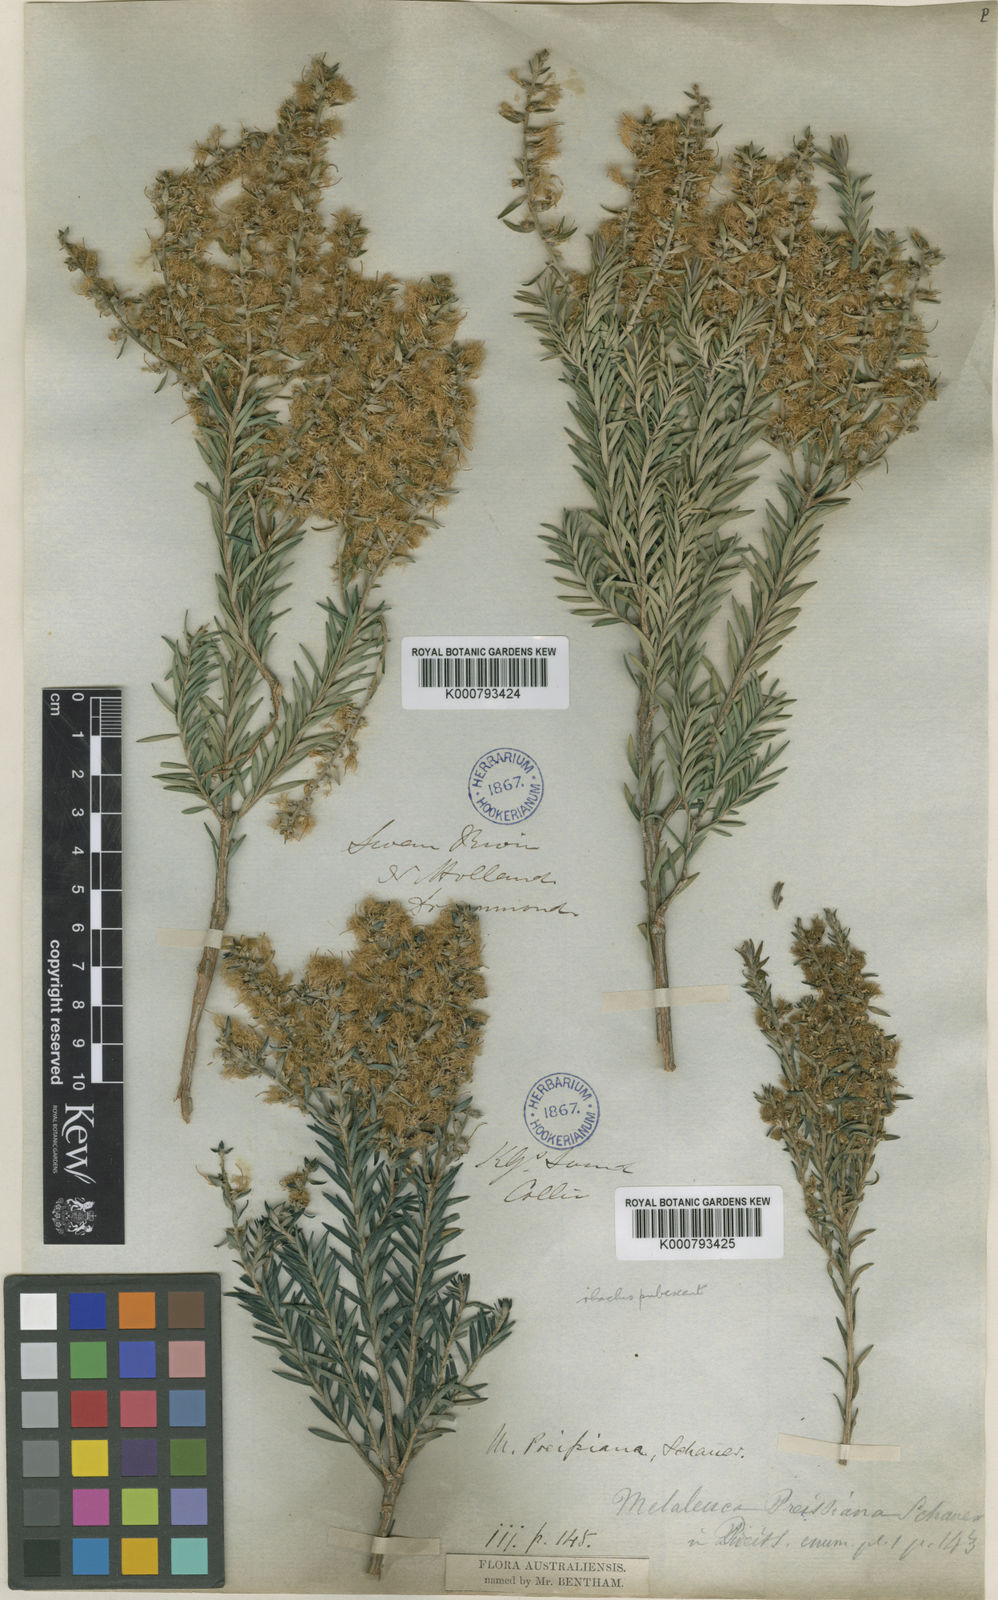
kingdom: Plantae
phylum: Tracheophyta
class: Magnoliopsida
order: Myrtales
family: Myrtaceae
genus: Melaleuca
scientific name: Melaleuca preissiana
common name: Preiss's paperbark
